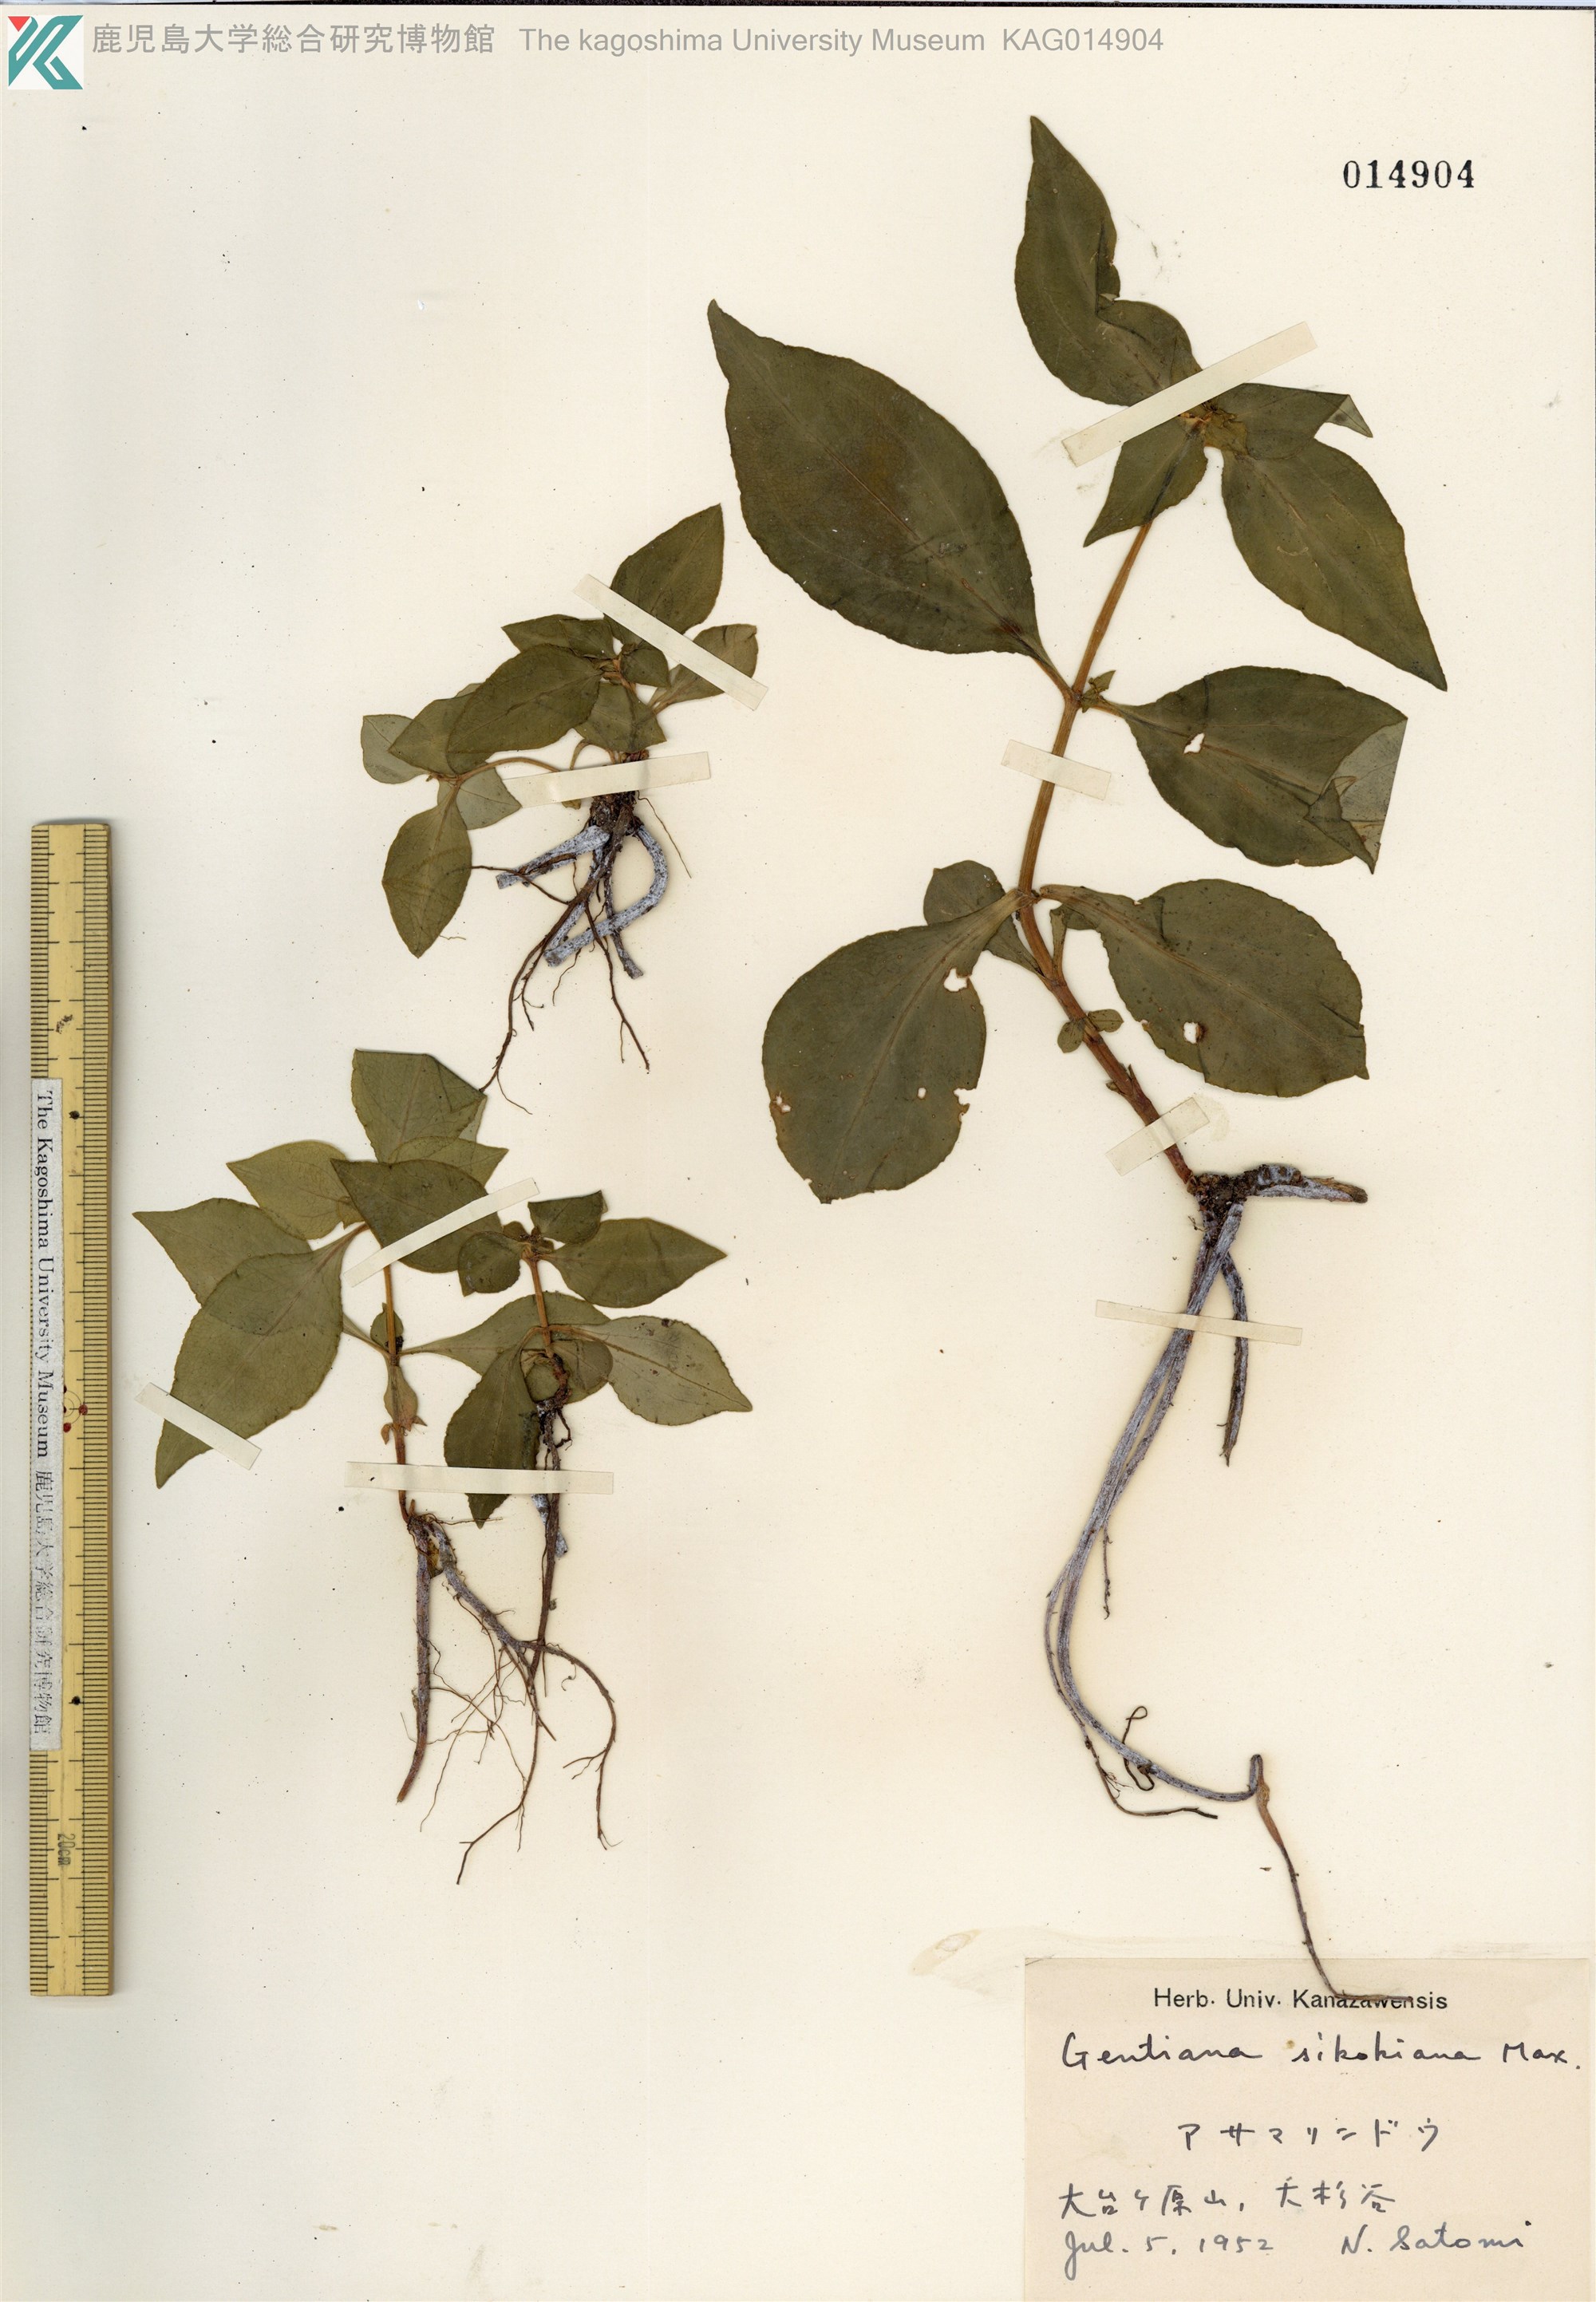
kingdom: Plantae
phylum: Tracheophyta
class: Magnoliopsida
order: Gentianales
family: Gentianaceae
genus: Gentiana
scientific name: Gentiana sikokiana
